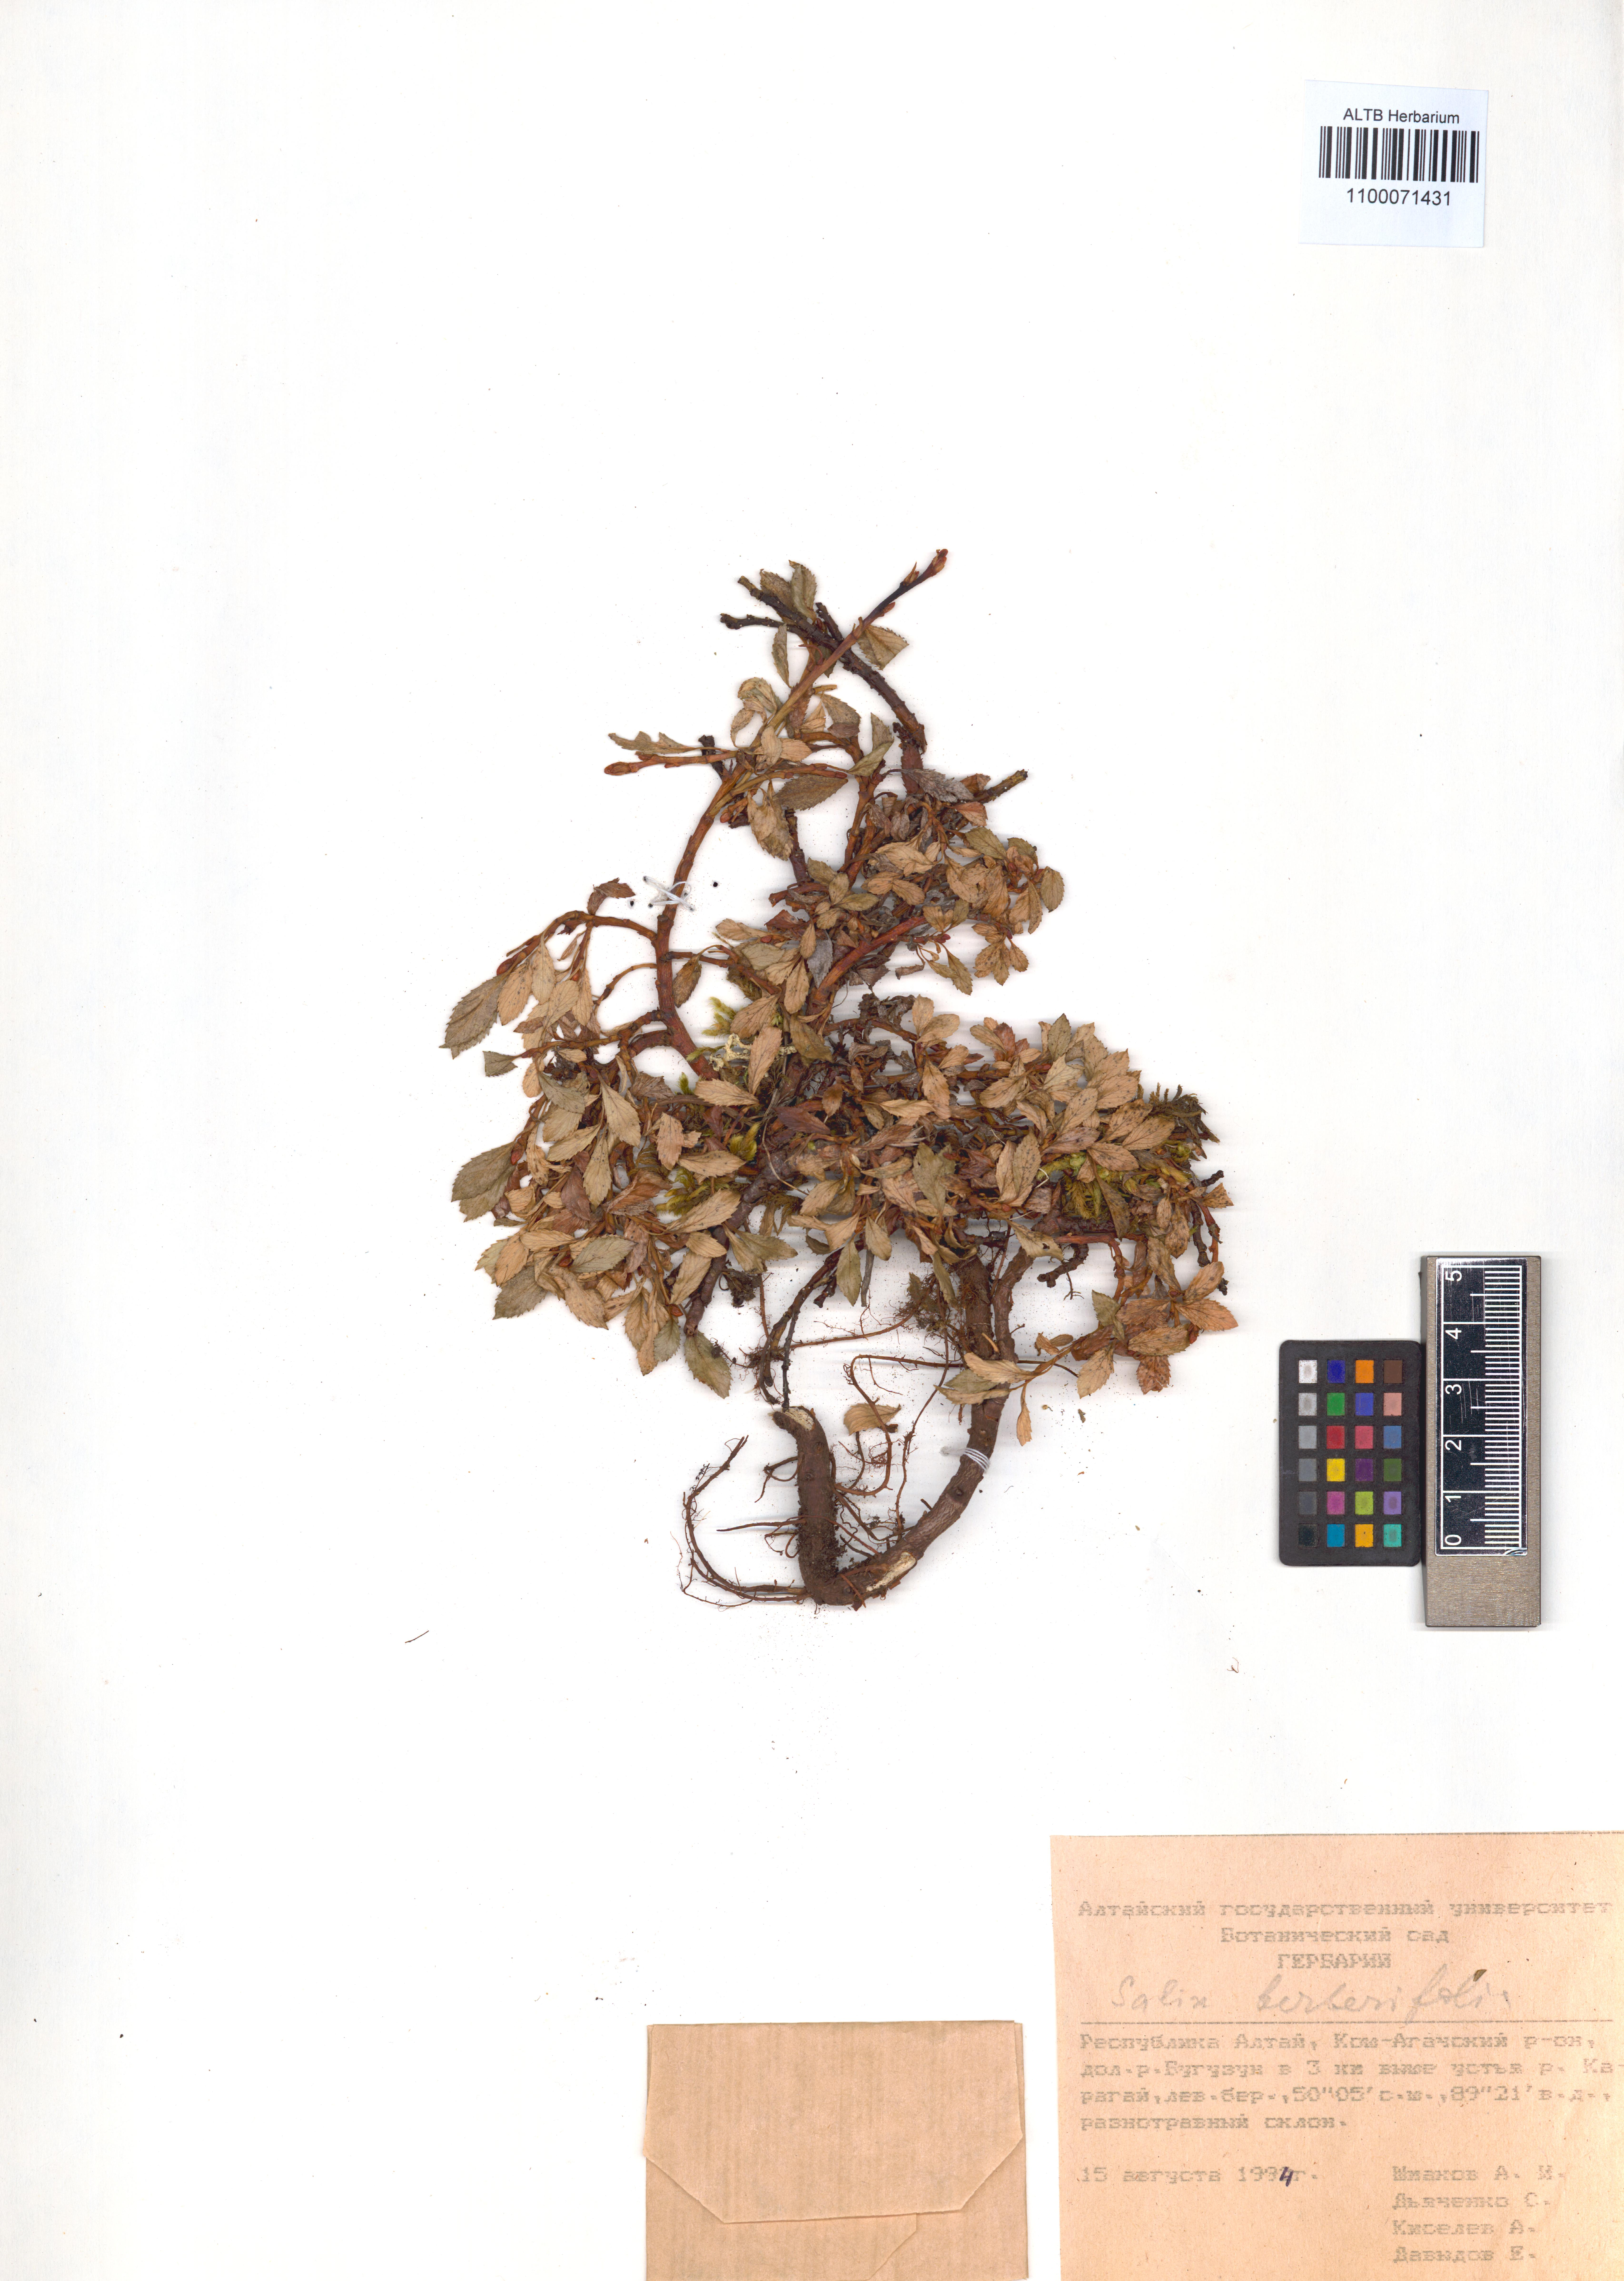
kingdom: Plantae
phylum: Tracheophyta
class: Magnoliopsida
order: Malpighiales
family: Salicaceae
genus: Salix
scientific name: Salix berberifolia
